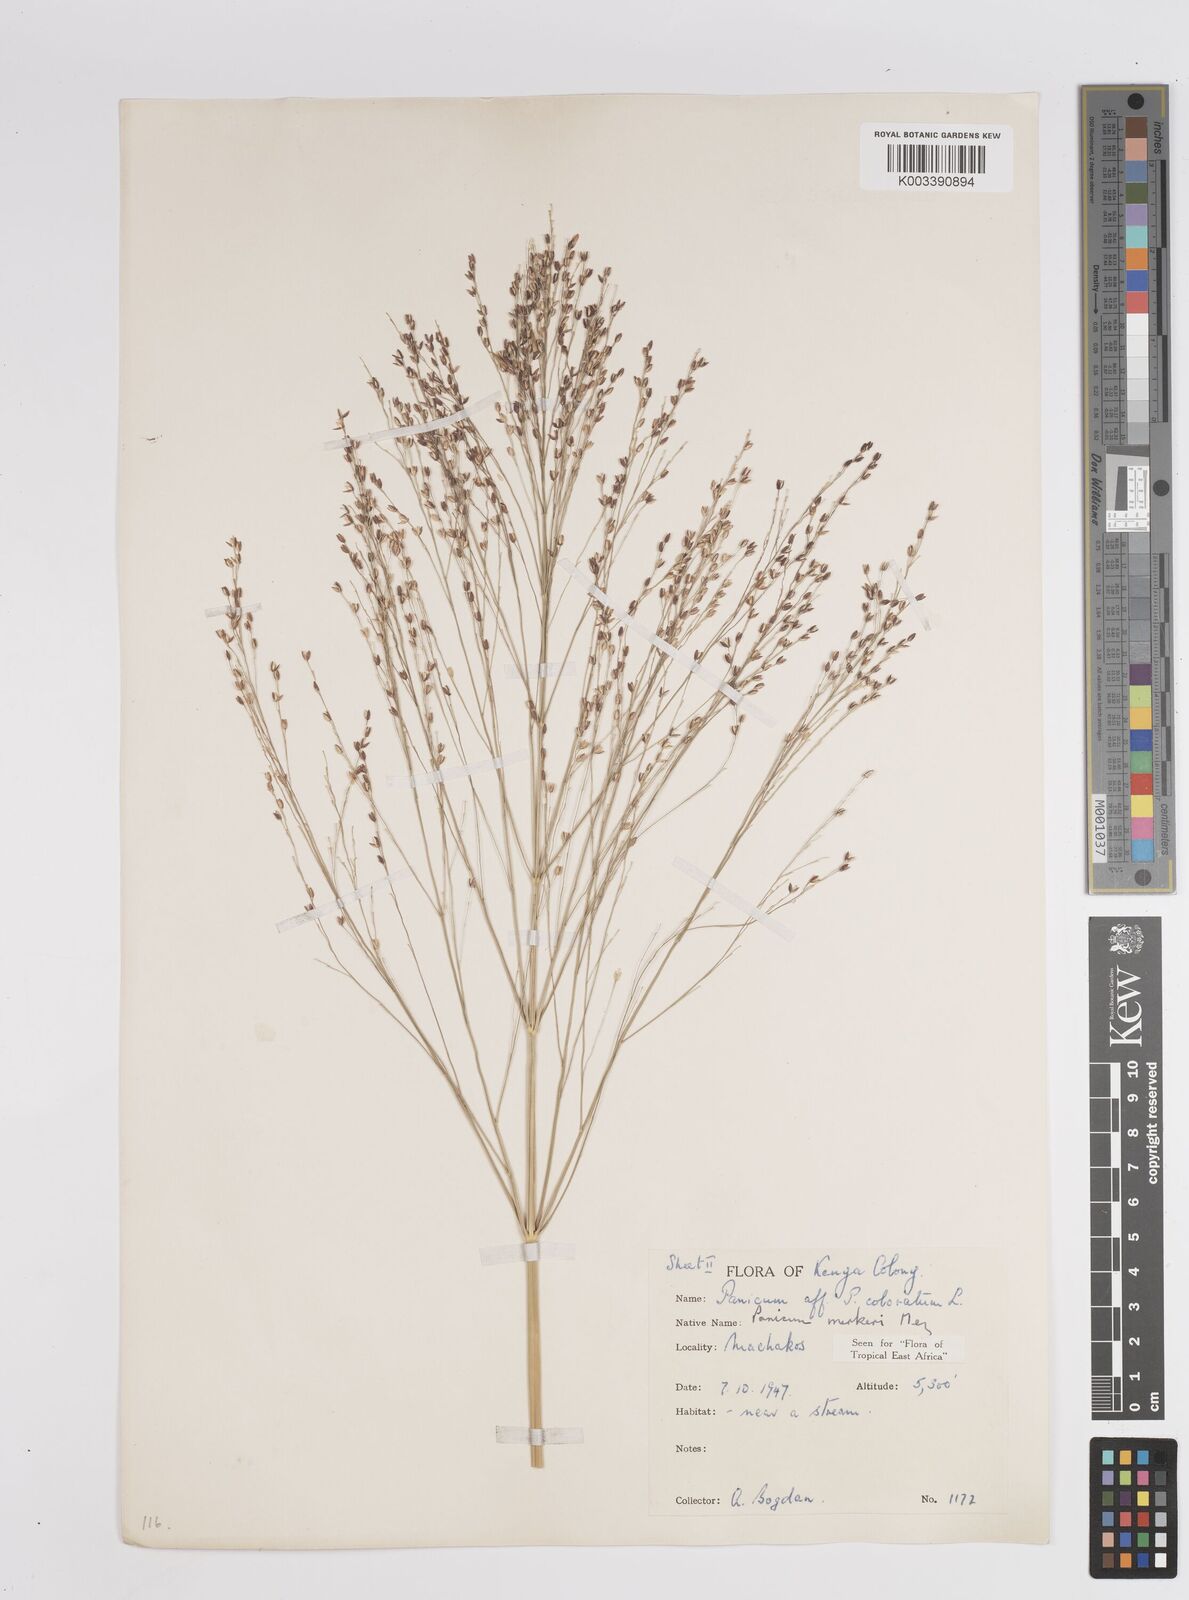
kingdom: Plantae
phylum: Tracheophyta
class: Liliopsida
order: Poales
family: Poaceae
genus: Panicum
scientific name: Panicum merkeri
